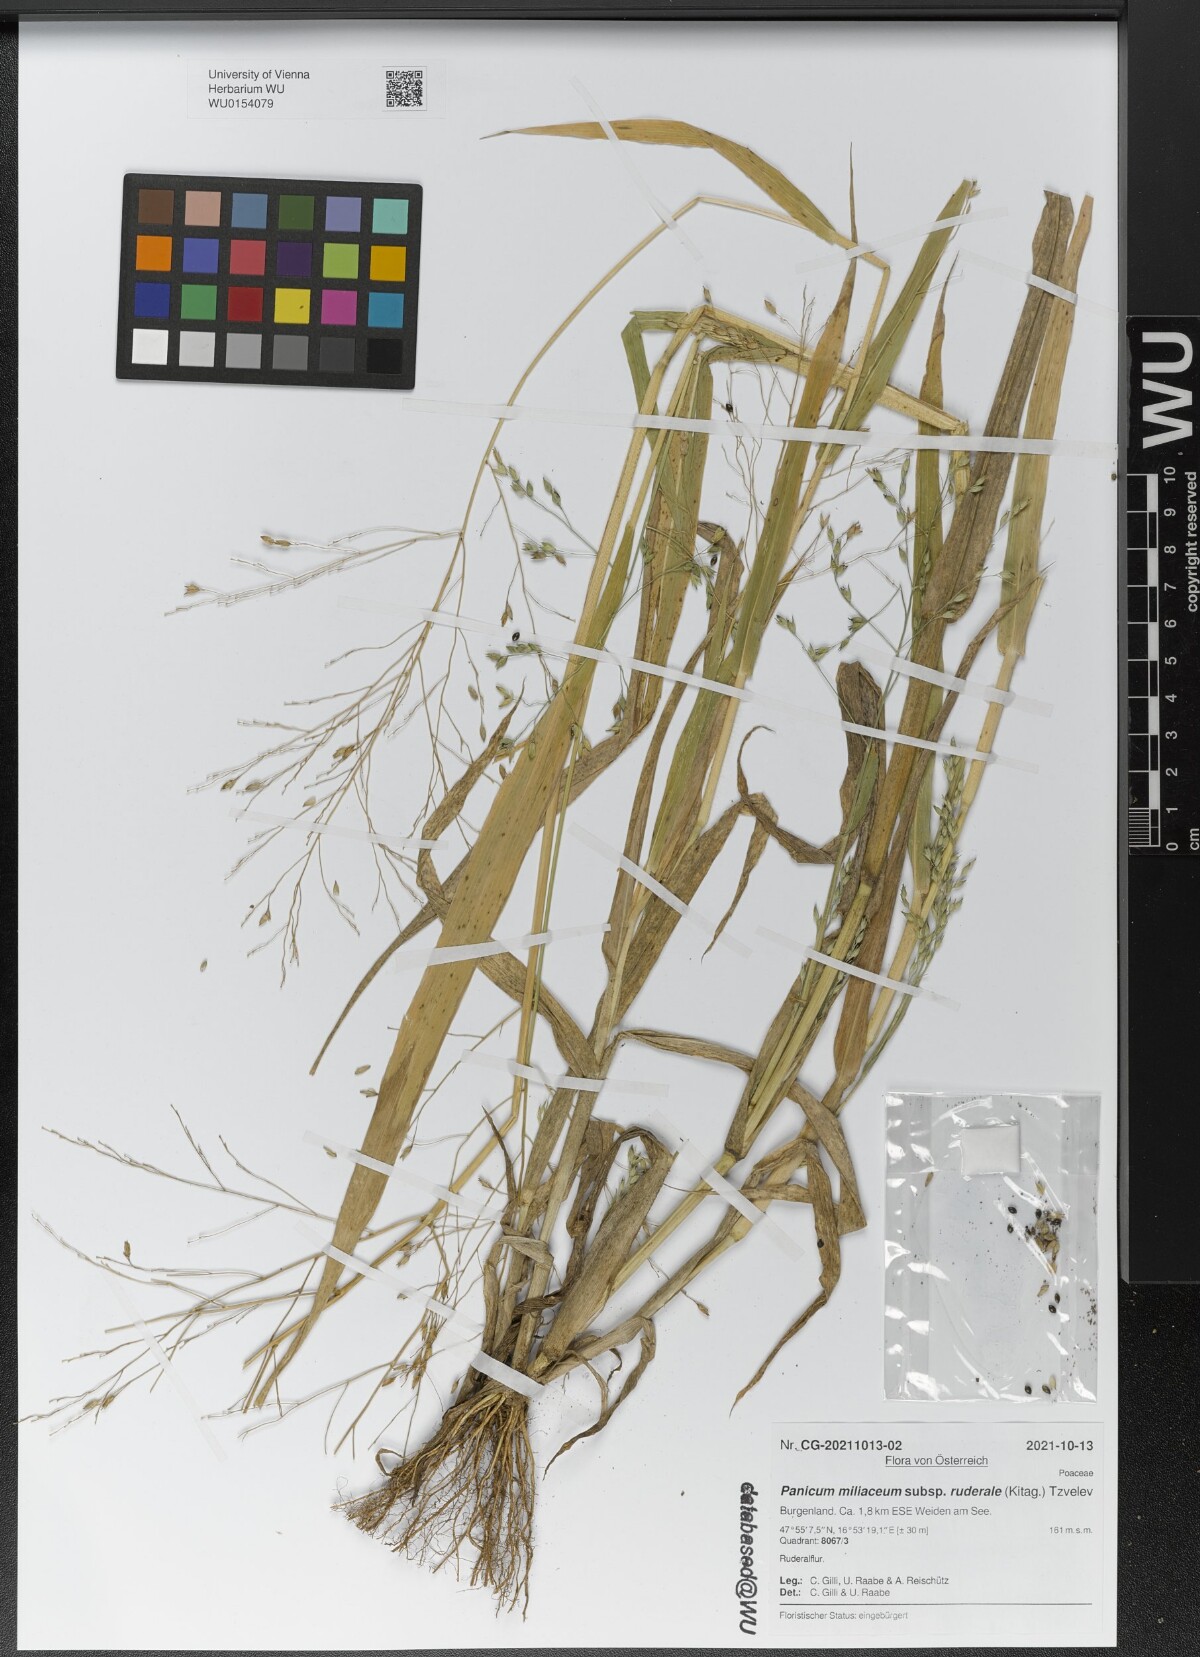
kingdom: Plantae
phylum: Tracheophyta
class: Liliopsida
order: Poales
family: Poaceae
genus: Panicum
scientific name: Panicum miliaceum
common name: Common millet
